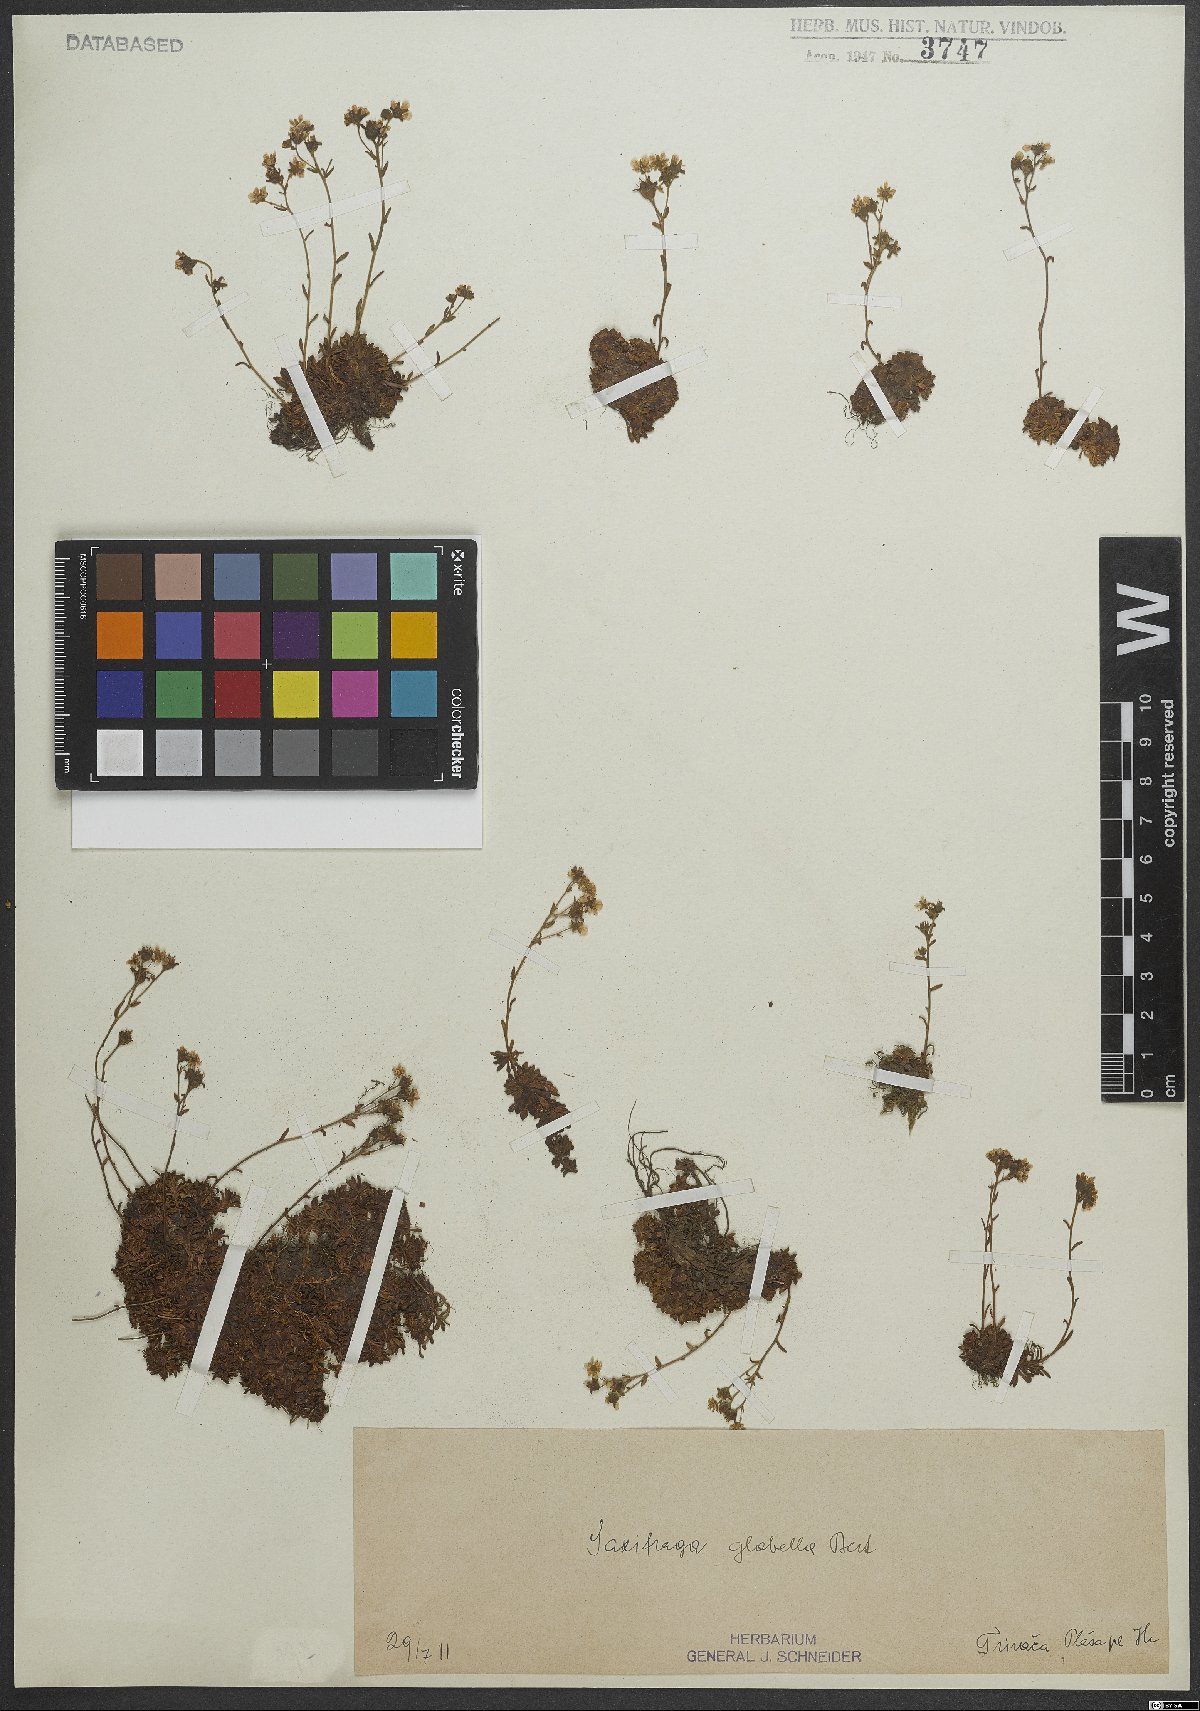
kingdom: Plantae
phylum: Tracheophyta
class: Magnoliopsida
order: Saxifragales
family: Saxifragaceae
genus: Saxifraga
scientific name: Saxifraga glabella
